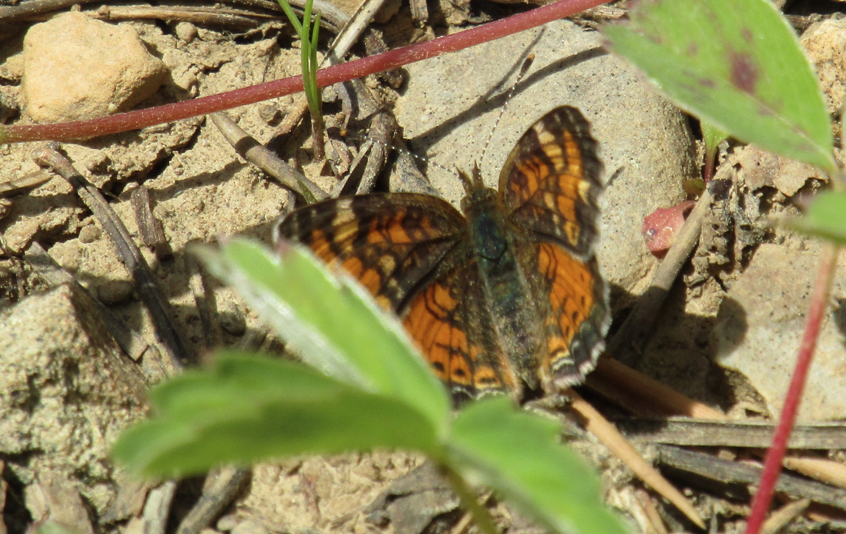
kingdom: Animalia
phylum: Arthropoda
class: Insecta
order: Lepidoptera
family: Nymphalidae
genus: Phyciodes
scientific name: Phyciodes tharos
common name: Field Crescent
